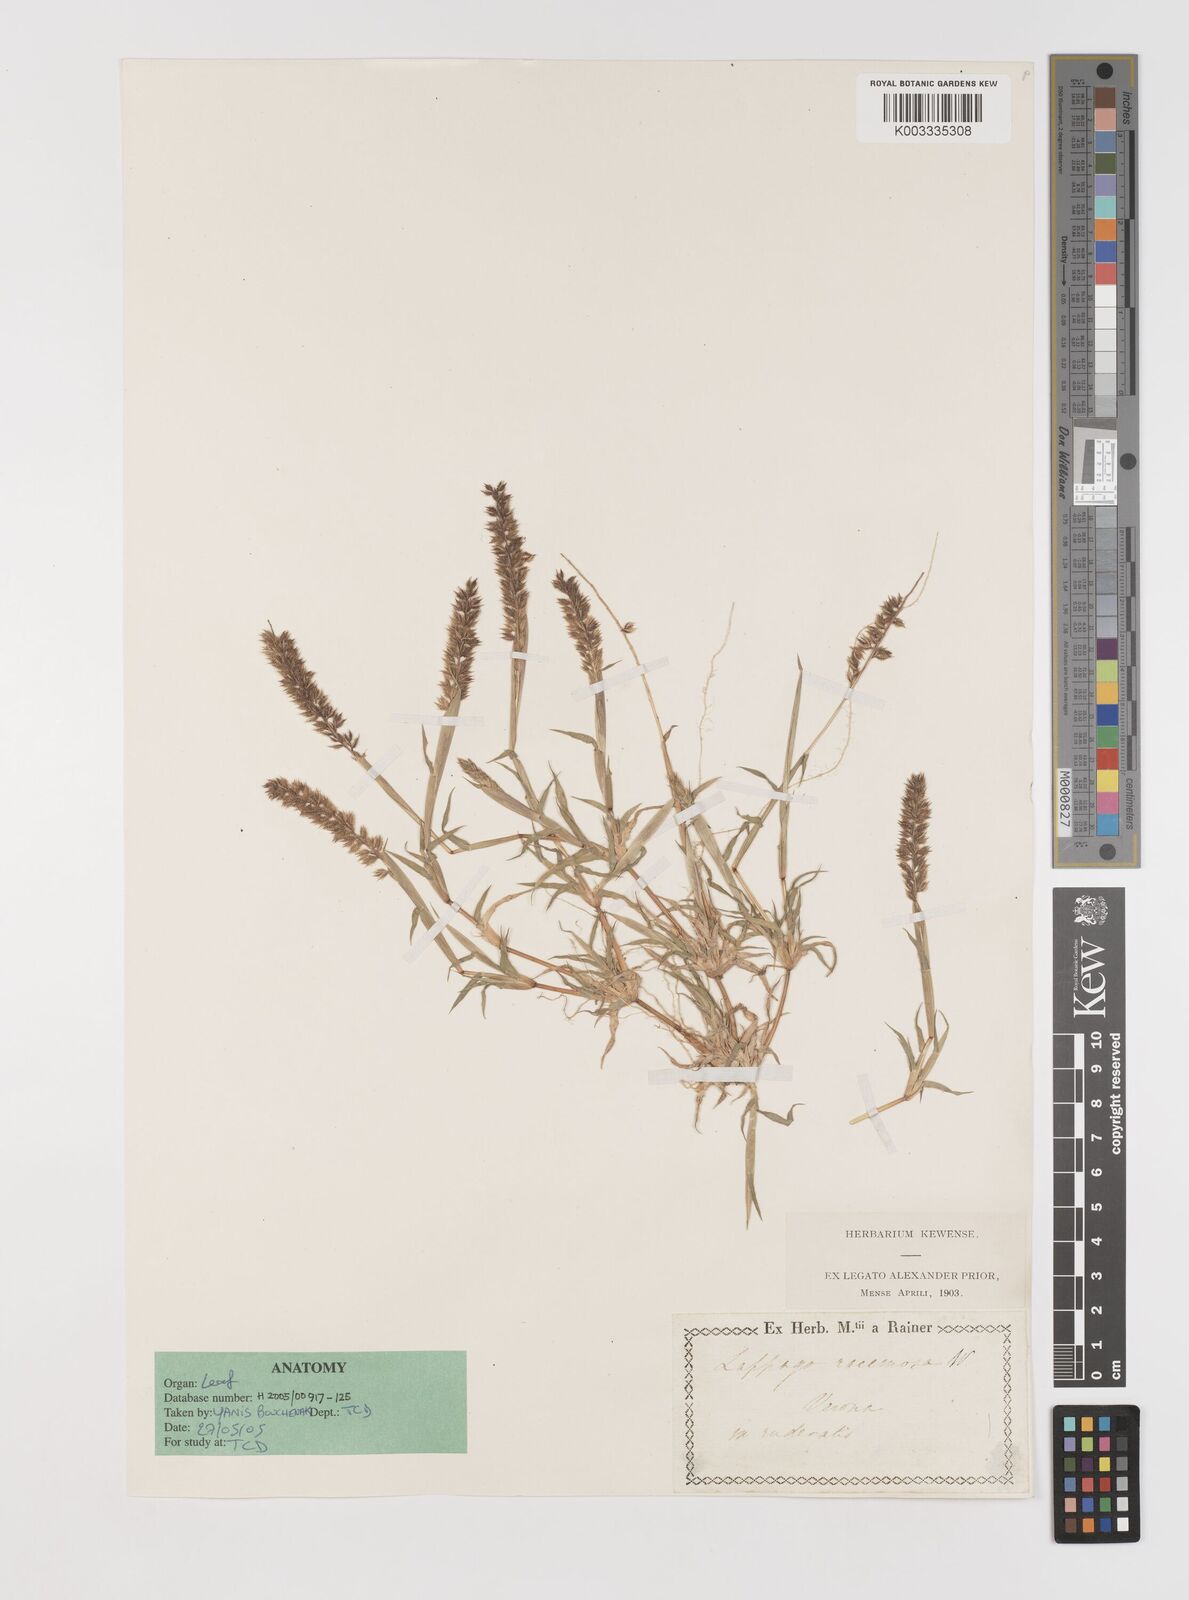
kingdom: Plantae
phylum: Tracheophyta
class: Liliopsida
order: Poales
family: Poaceae
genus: Tragus
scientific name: Tragus racemosus
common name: European bur-grass
